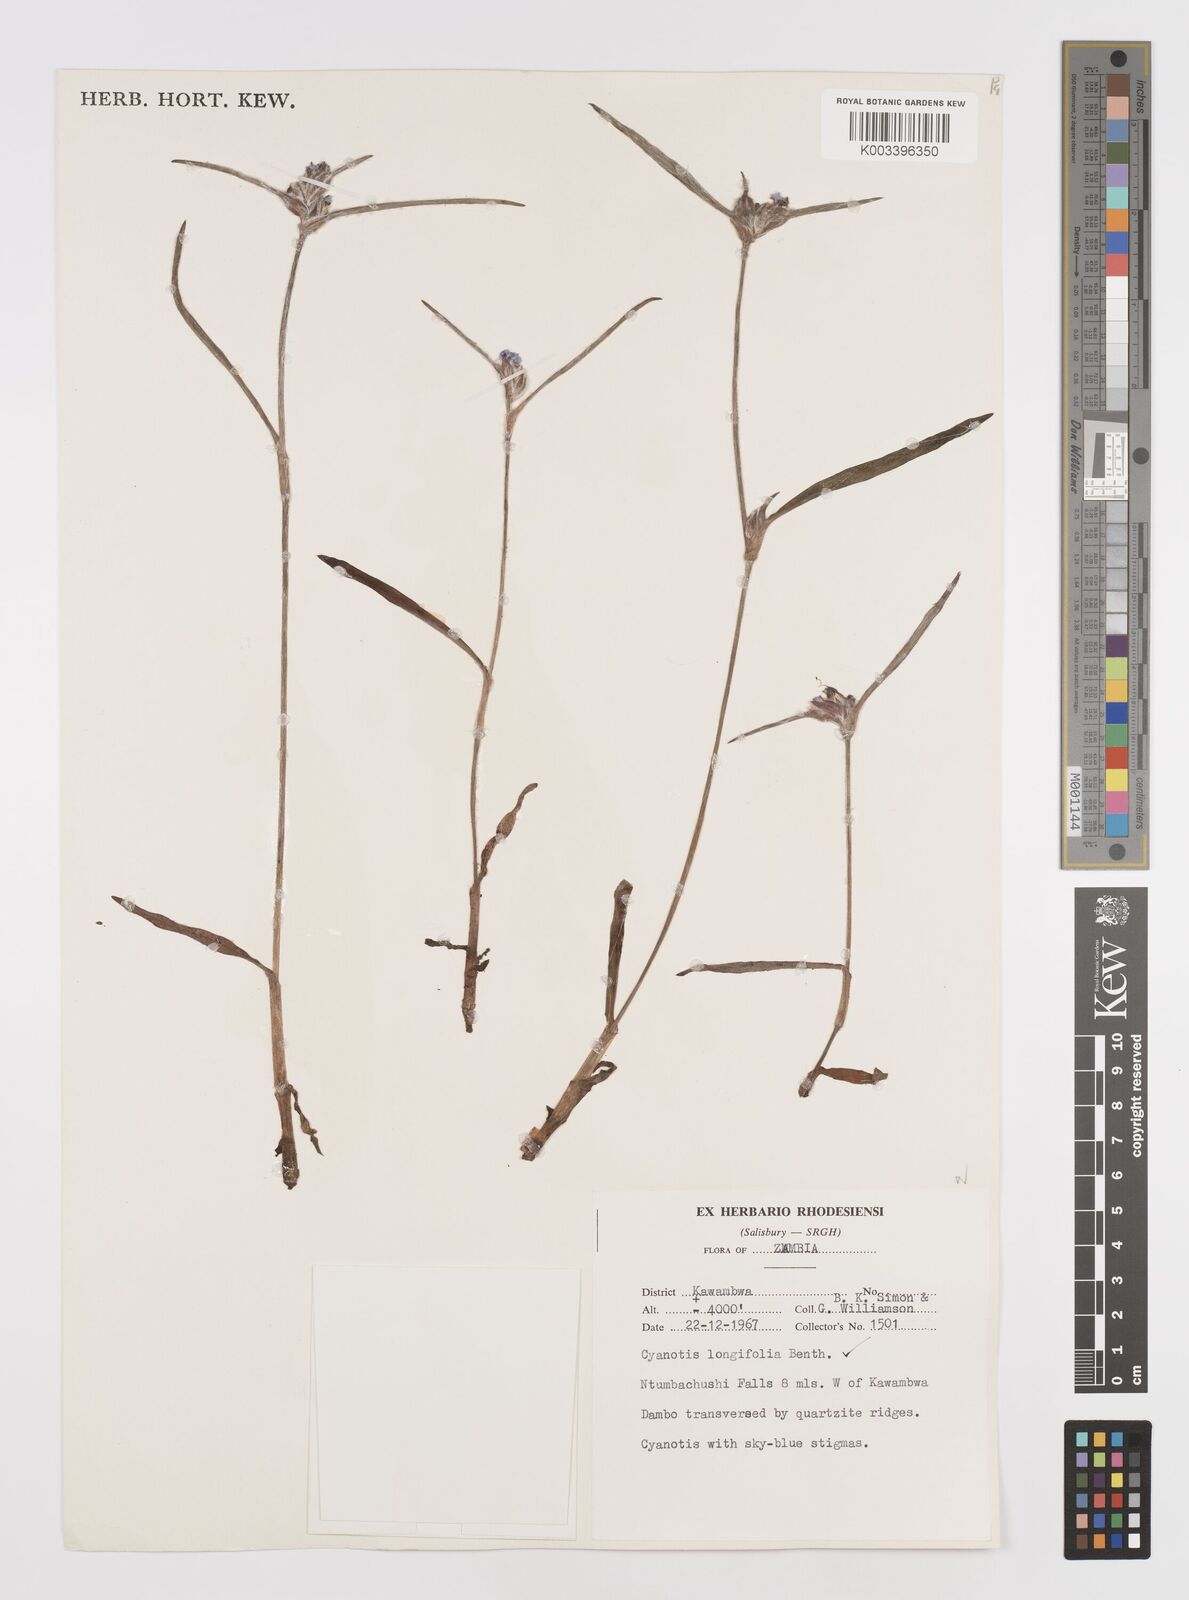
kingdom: Plantae
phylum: Tracheophyta
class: Liliopsida
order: Commelinales
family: Commelinaceae
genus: Cyanotis
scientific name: Cyanotis longifolia
